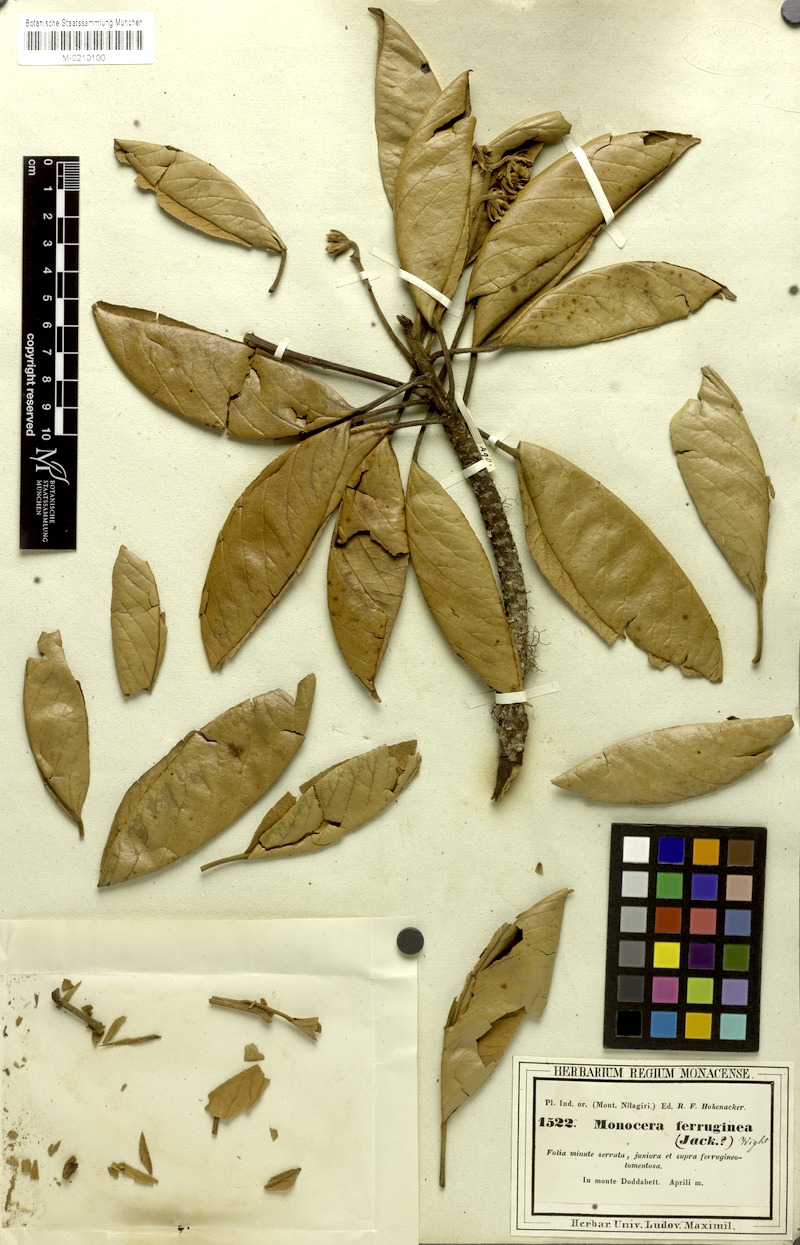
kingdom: Plantae
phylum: Tracheophyta
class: Magnoliopsida
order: Oxalidales
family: Elaeocarpaceae
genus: Elaeocarpus
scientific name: Elaeocarpus ferrugineus
